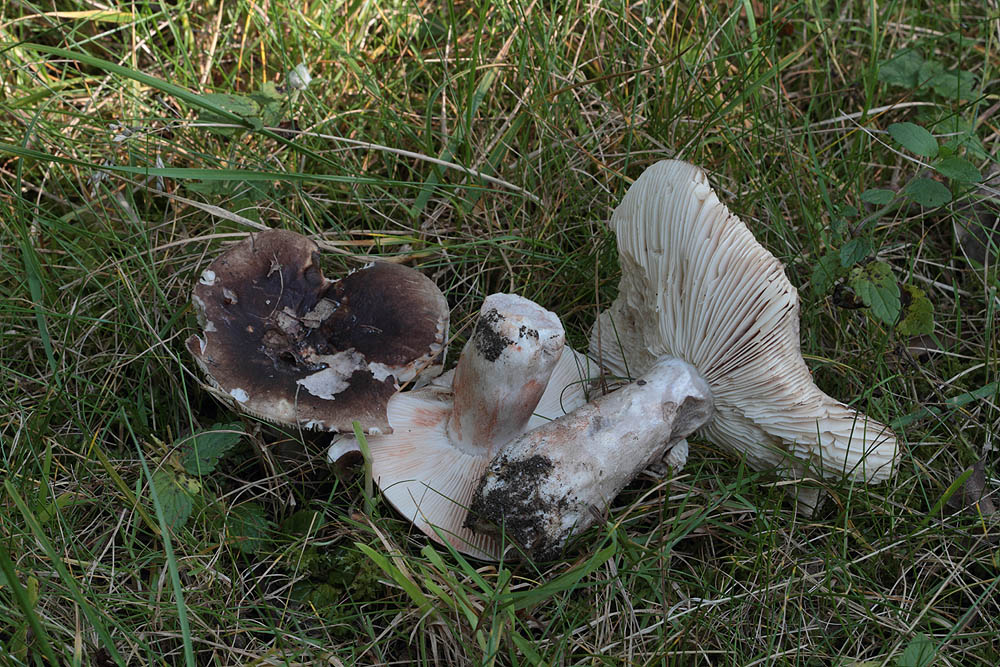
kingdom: Fungi
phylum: Basidiomycota
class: Agaricomycetes
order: Russulales
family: Russulaceae
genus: Russula
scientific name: Russula acrifolia
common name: skarpbladet skørhat
